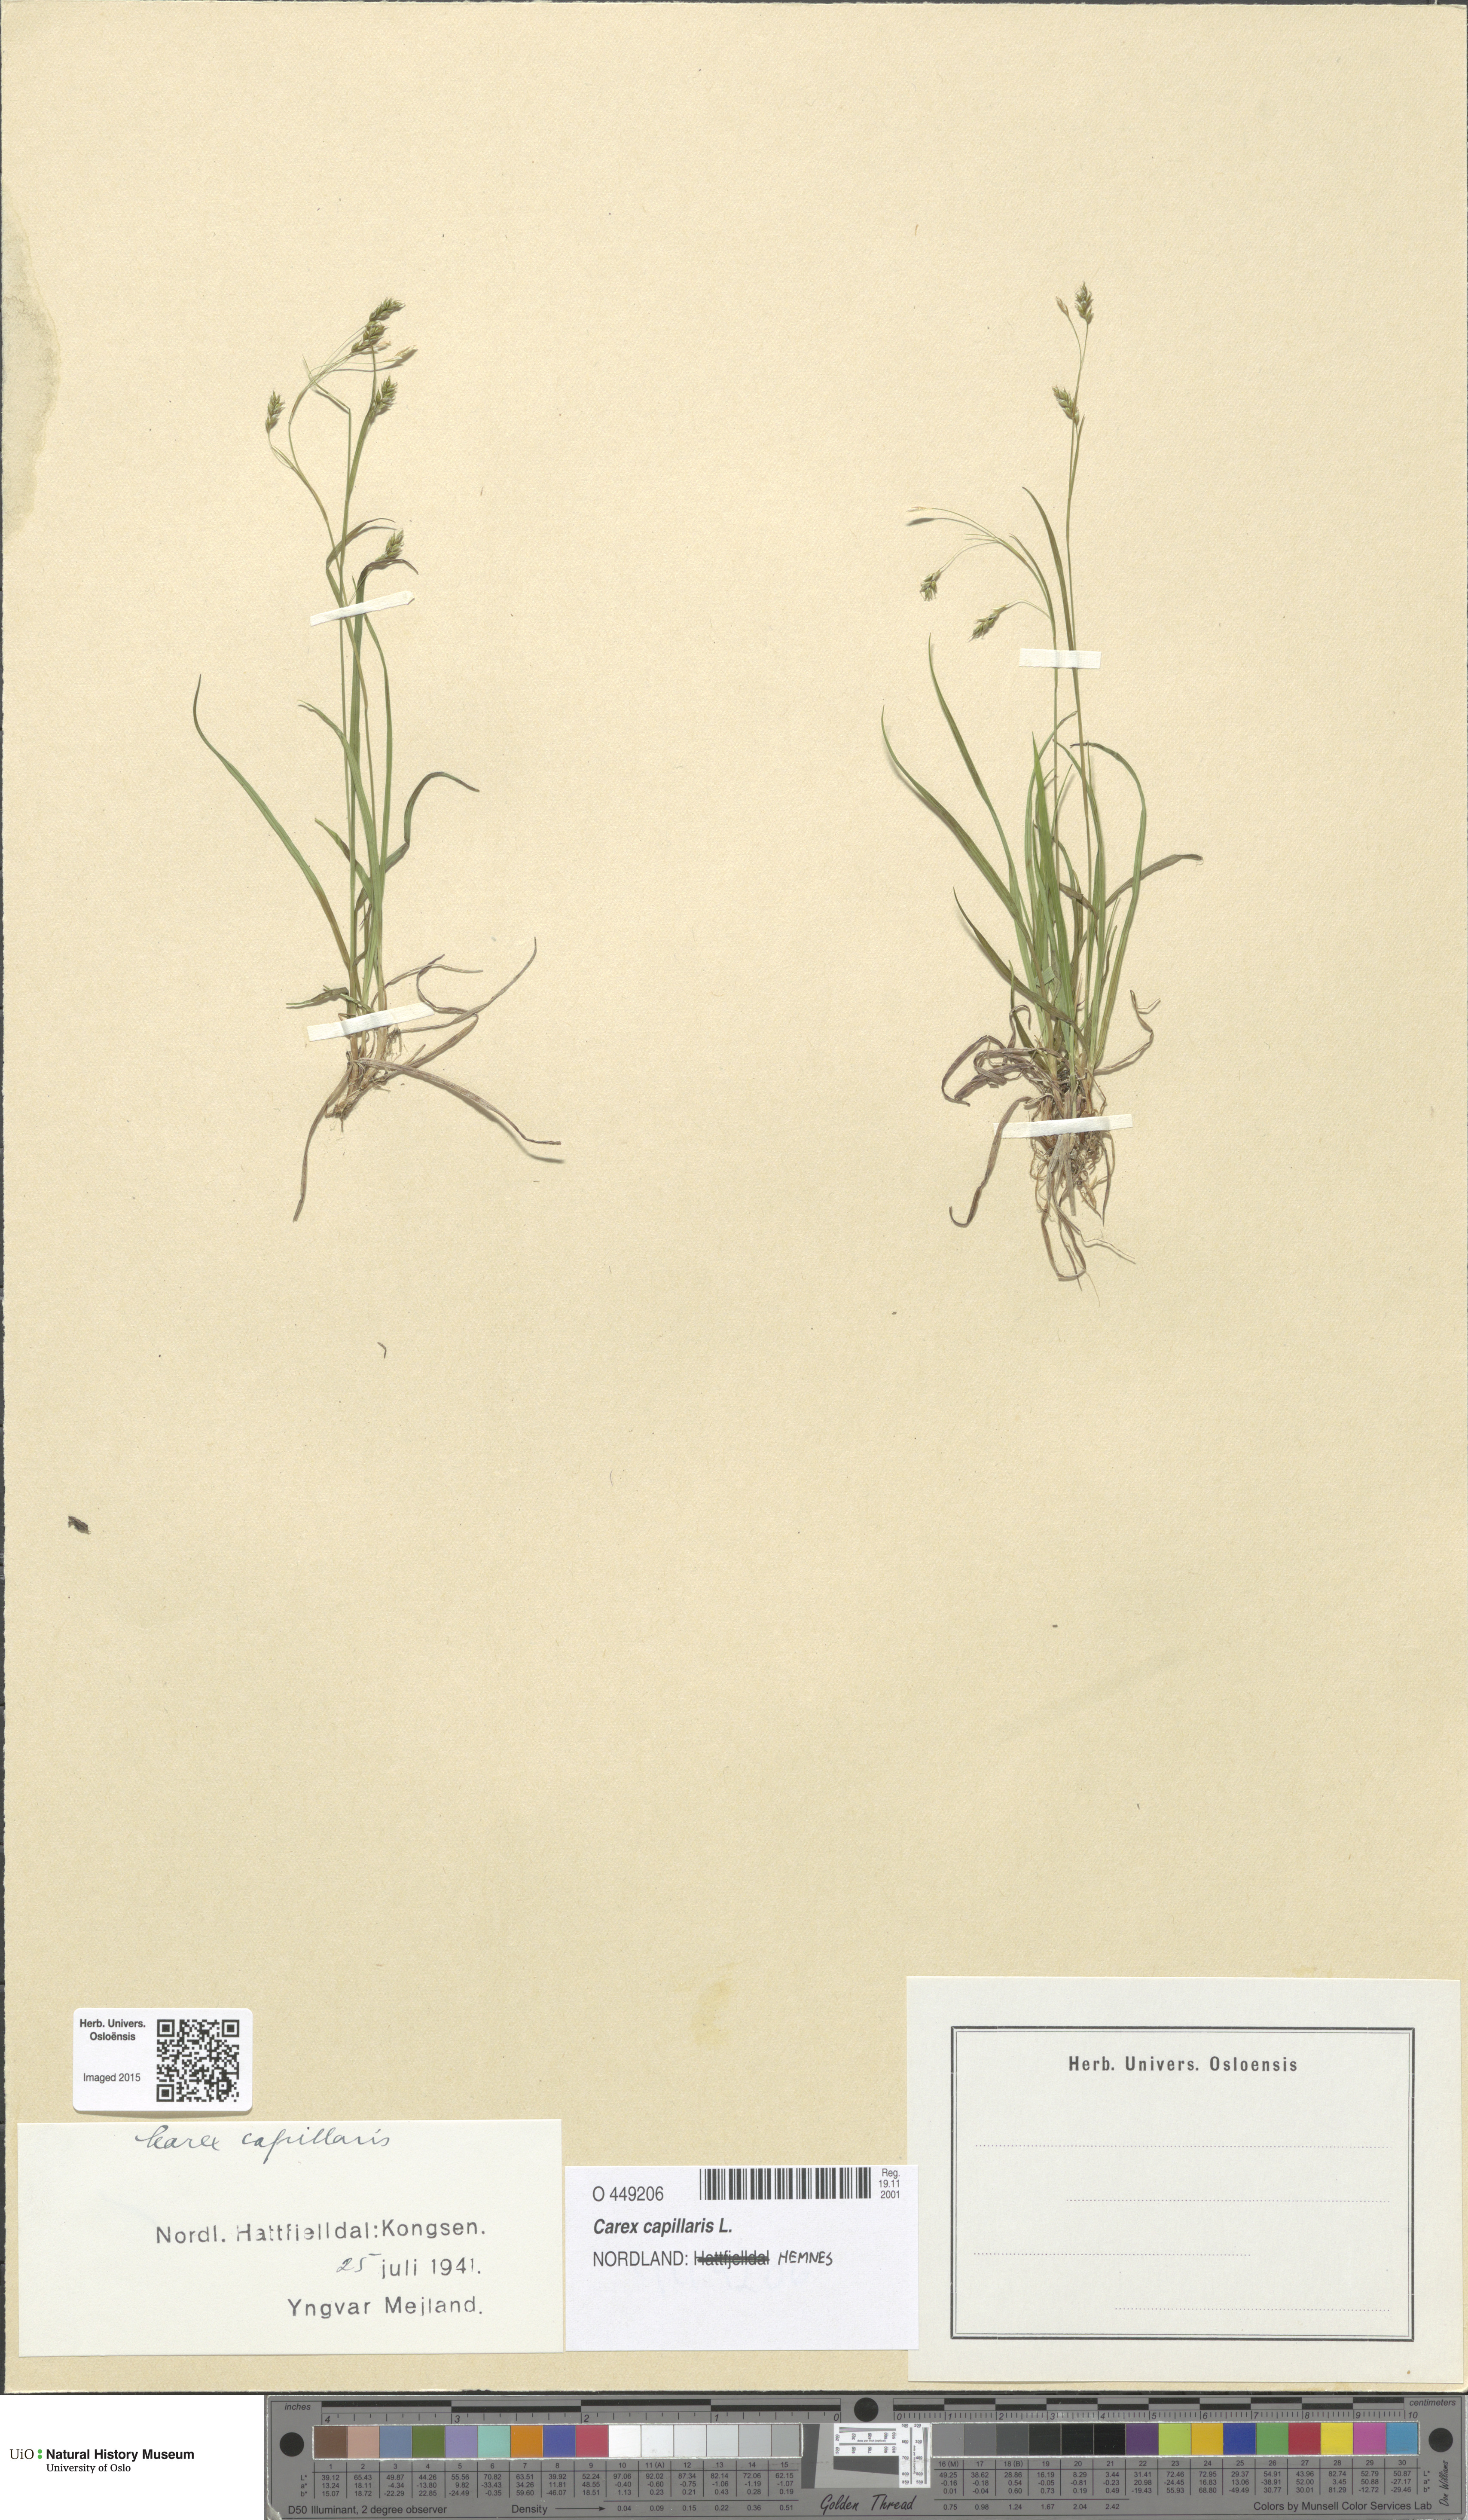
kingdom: Plantae
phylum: Tracheophyta
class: Liliopsida
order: Poales
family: Cyperaceae
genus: Carex
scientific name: Carex capillaris
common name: Hair sedge
